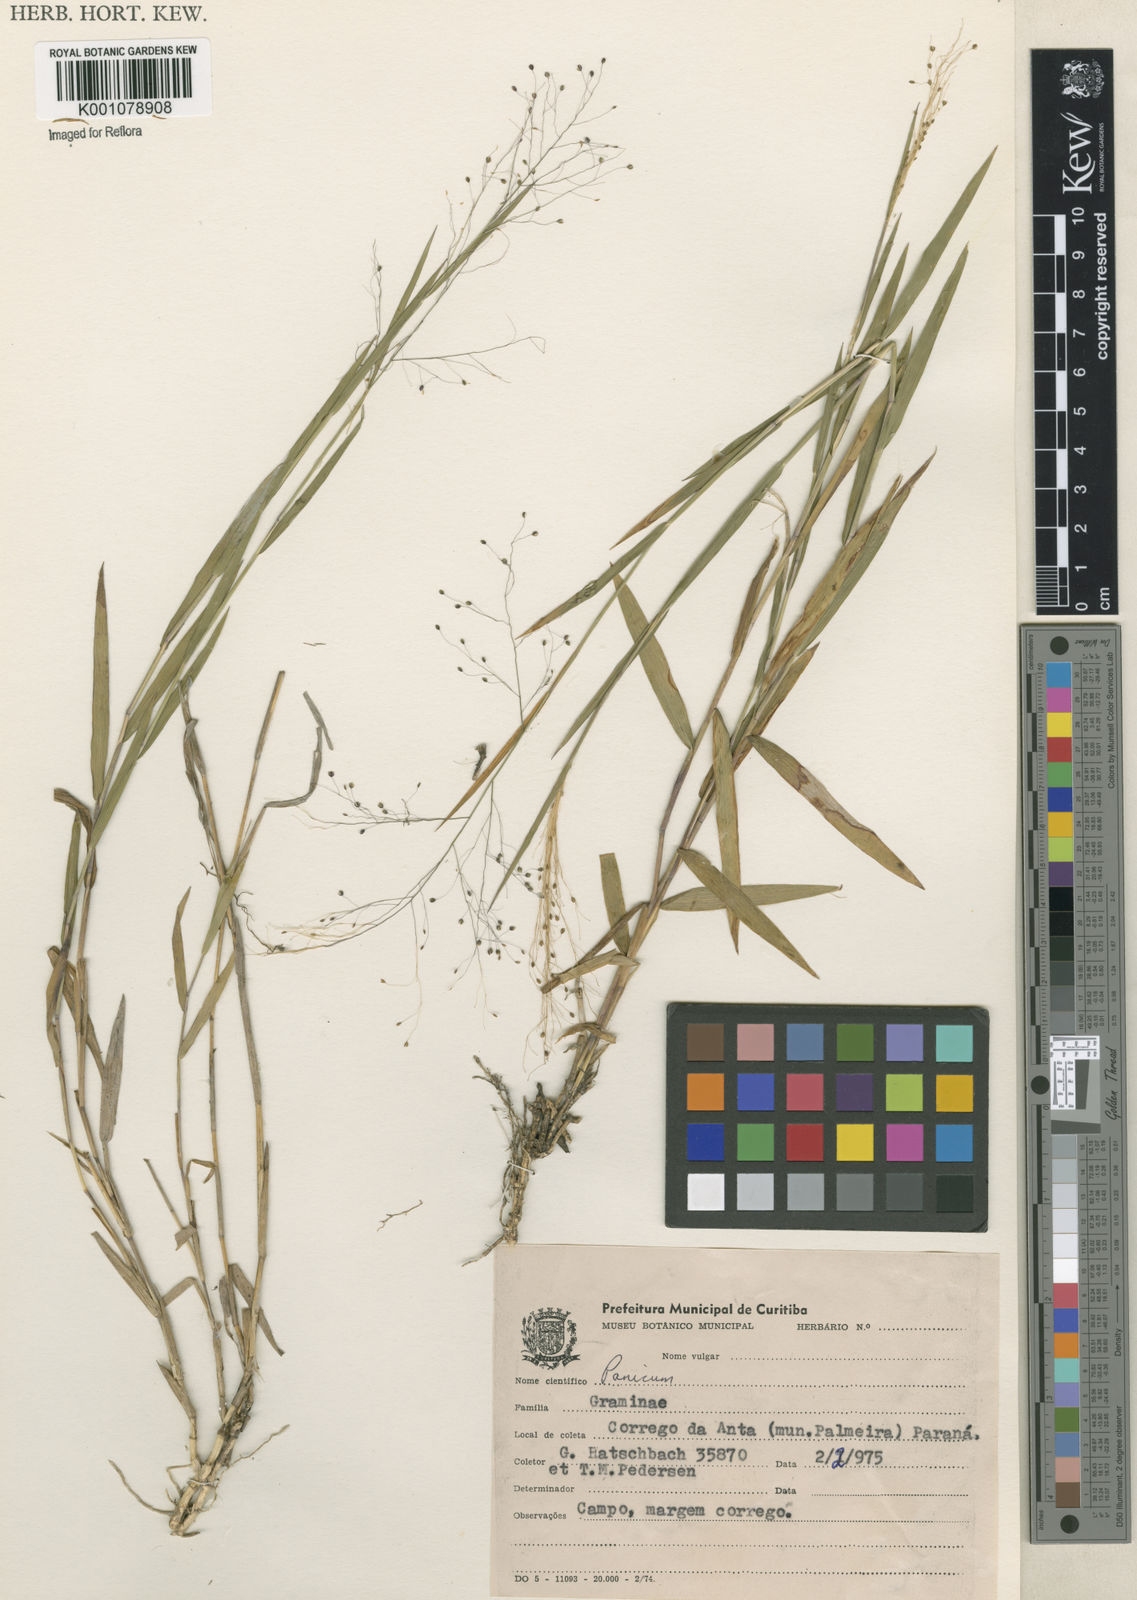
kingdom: Plantae
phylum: Tracheophyta
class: Liliopsida
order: Poales
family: Poaceae
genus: Trichanthecium
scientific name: Trichanthecium cyanescens
